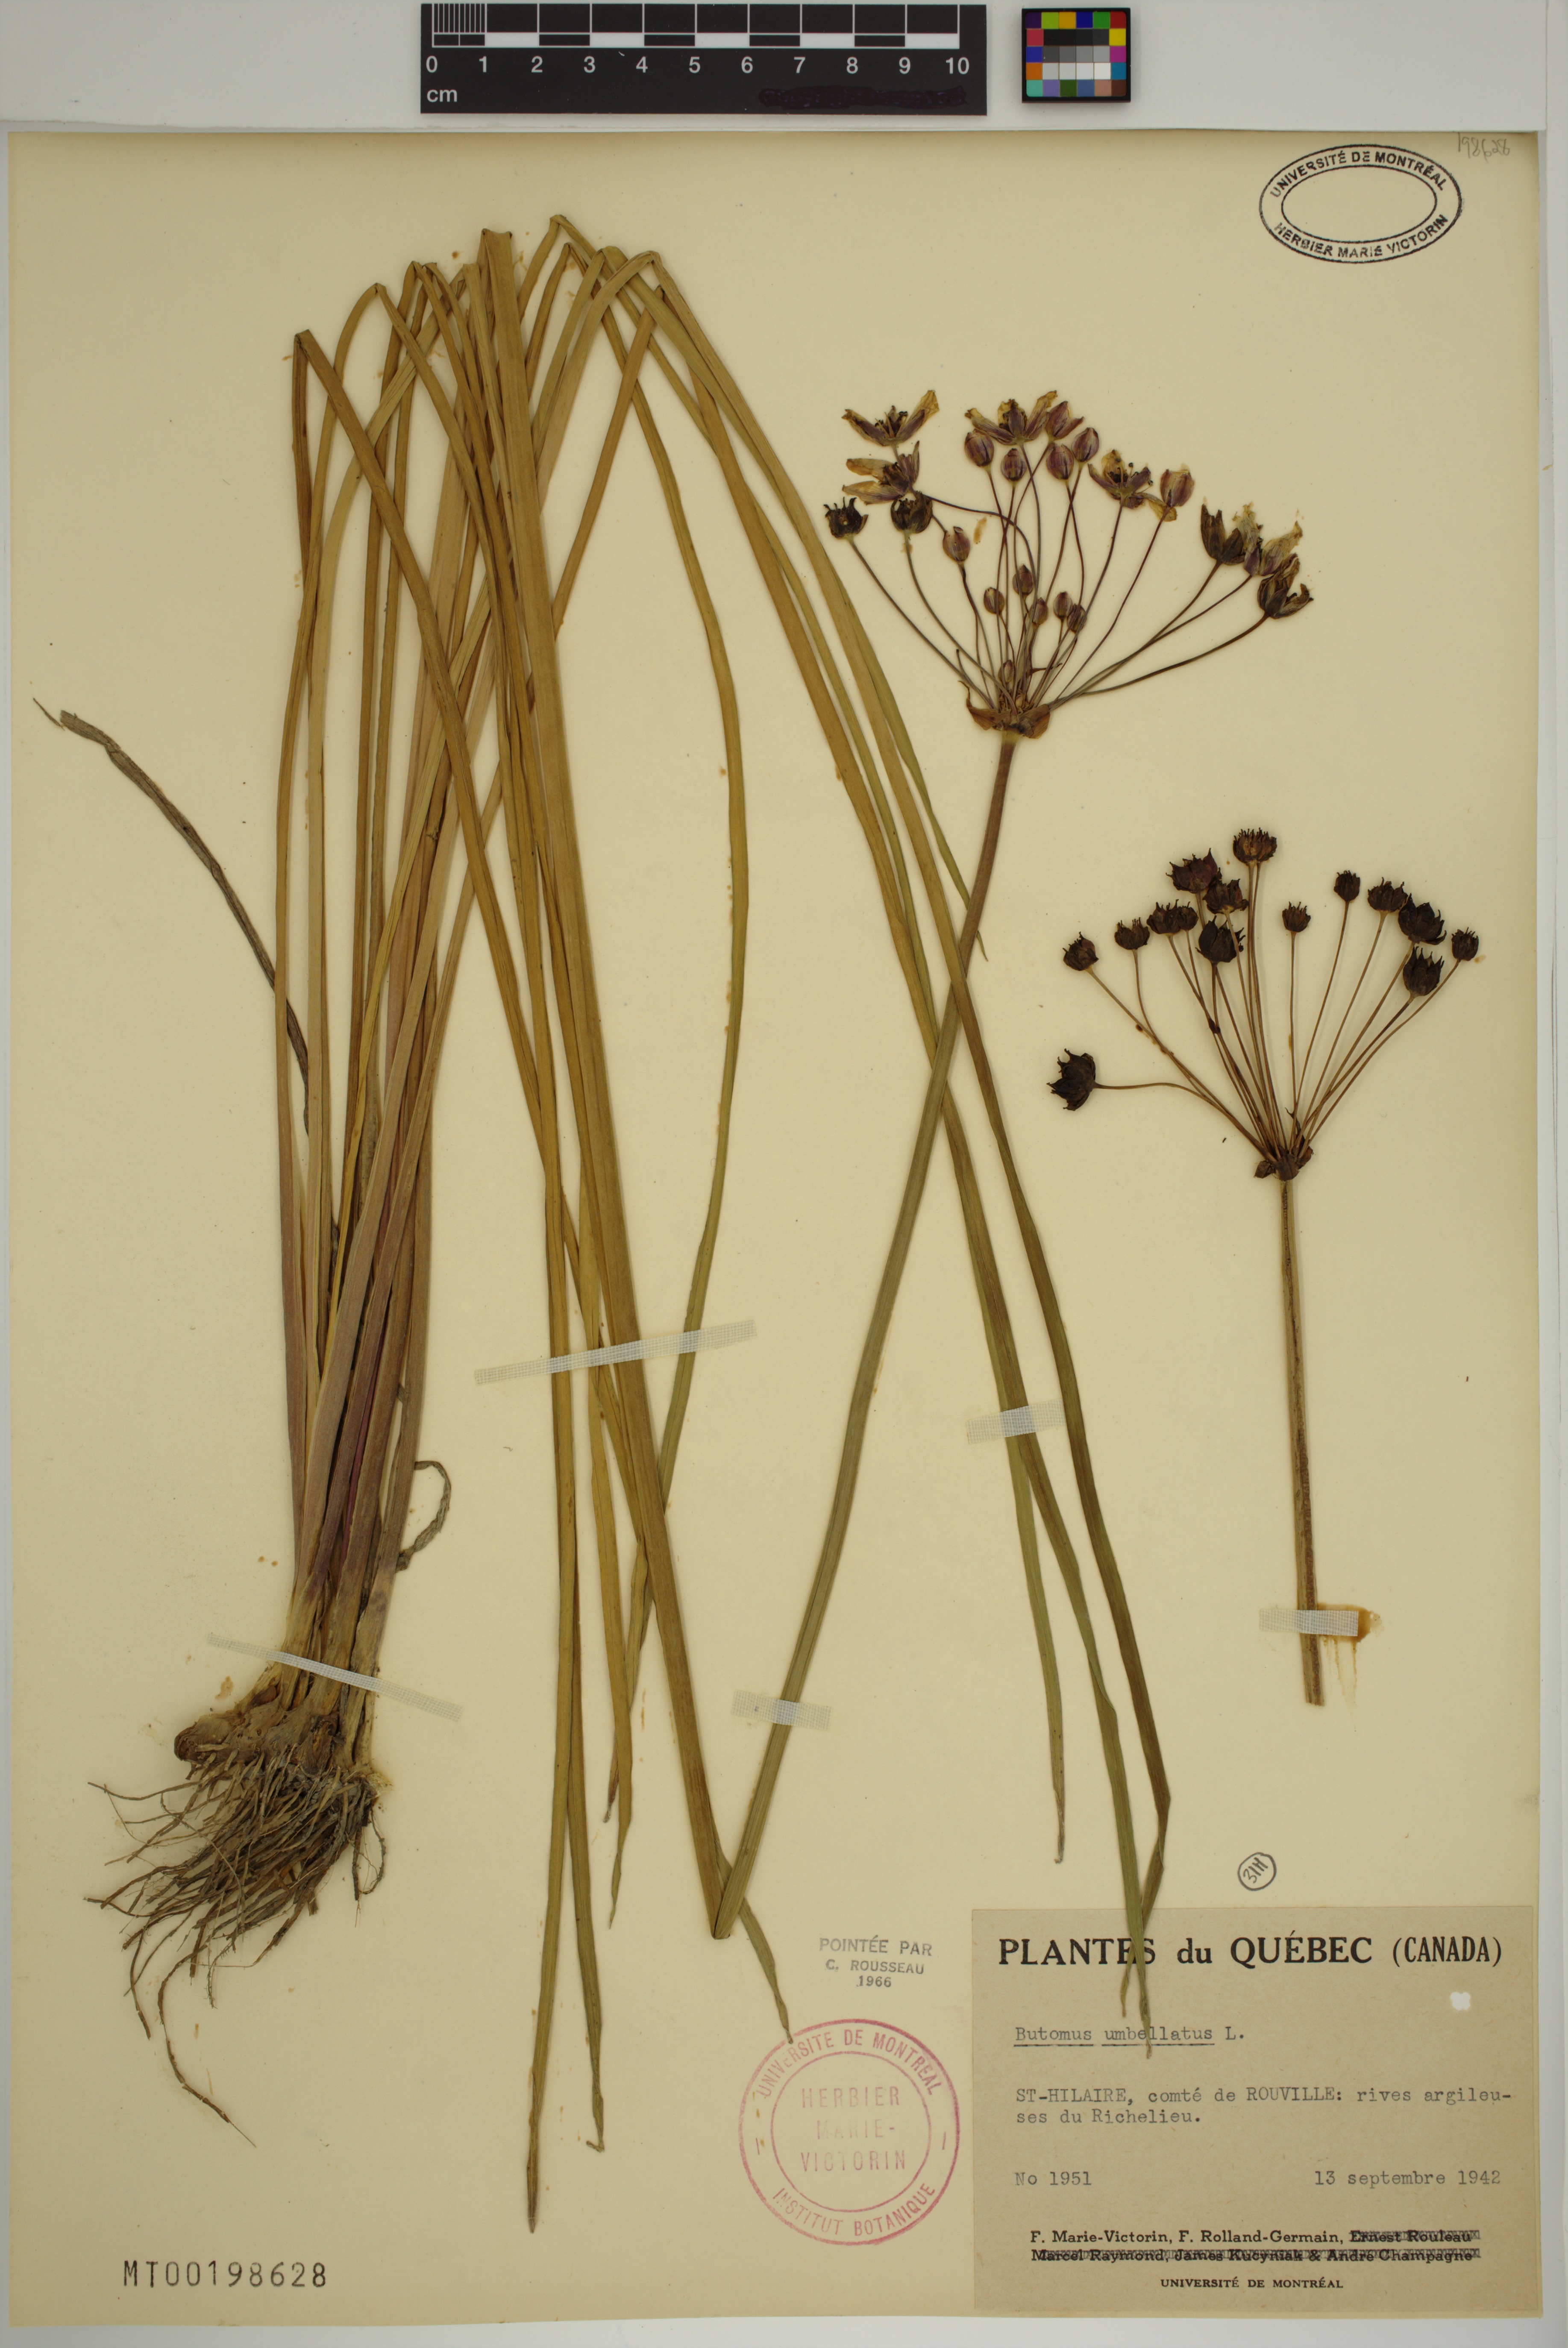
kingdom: Plantae
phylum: Tracheophyta
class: Liliopsida
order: Alismatales
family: Butomaceae
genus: Butomus
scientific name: Butomus umbellatus
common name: Flowering-rush
